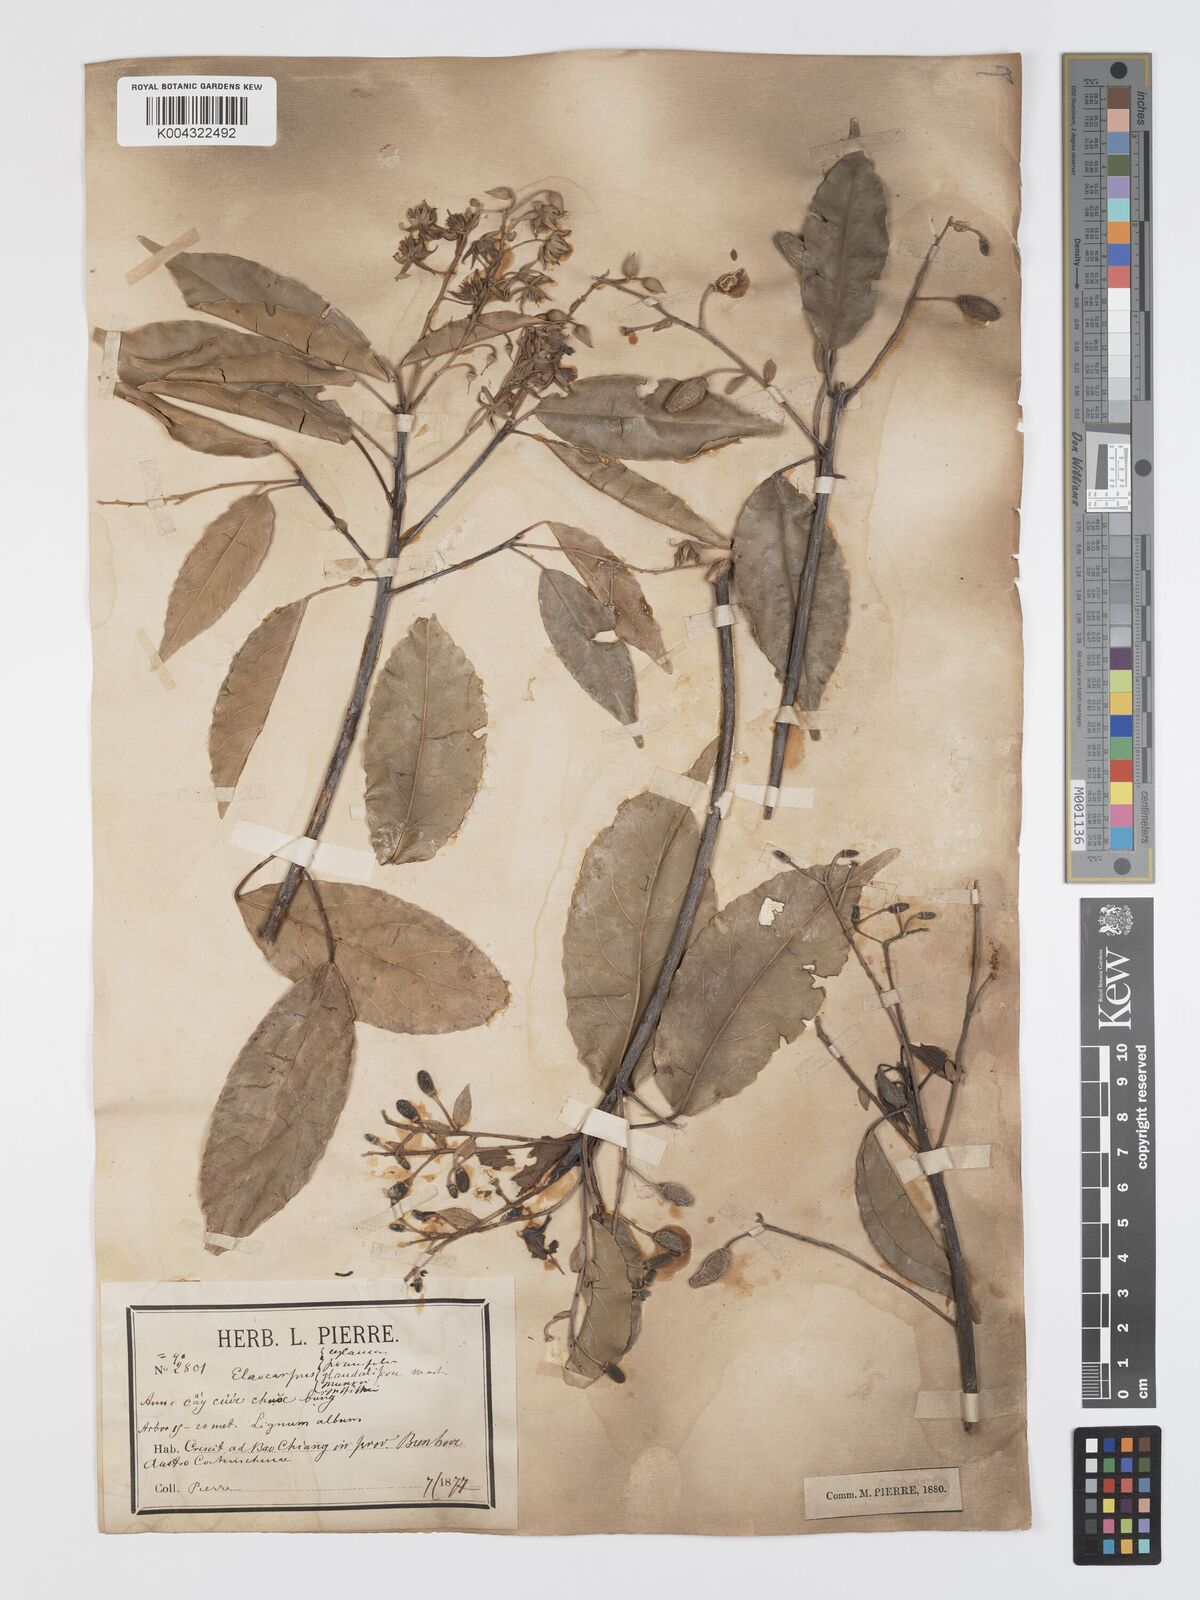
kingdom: Plantae
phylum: Tracheophyta
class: Magnoliopsida
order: Oxalidales
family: Elaeocarpaceae
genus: Elaeocarpus
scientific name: Elaeocarpus griffithii
